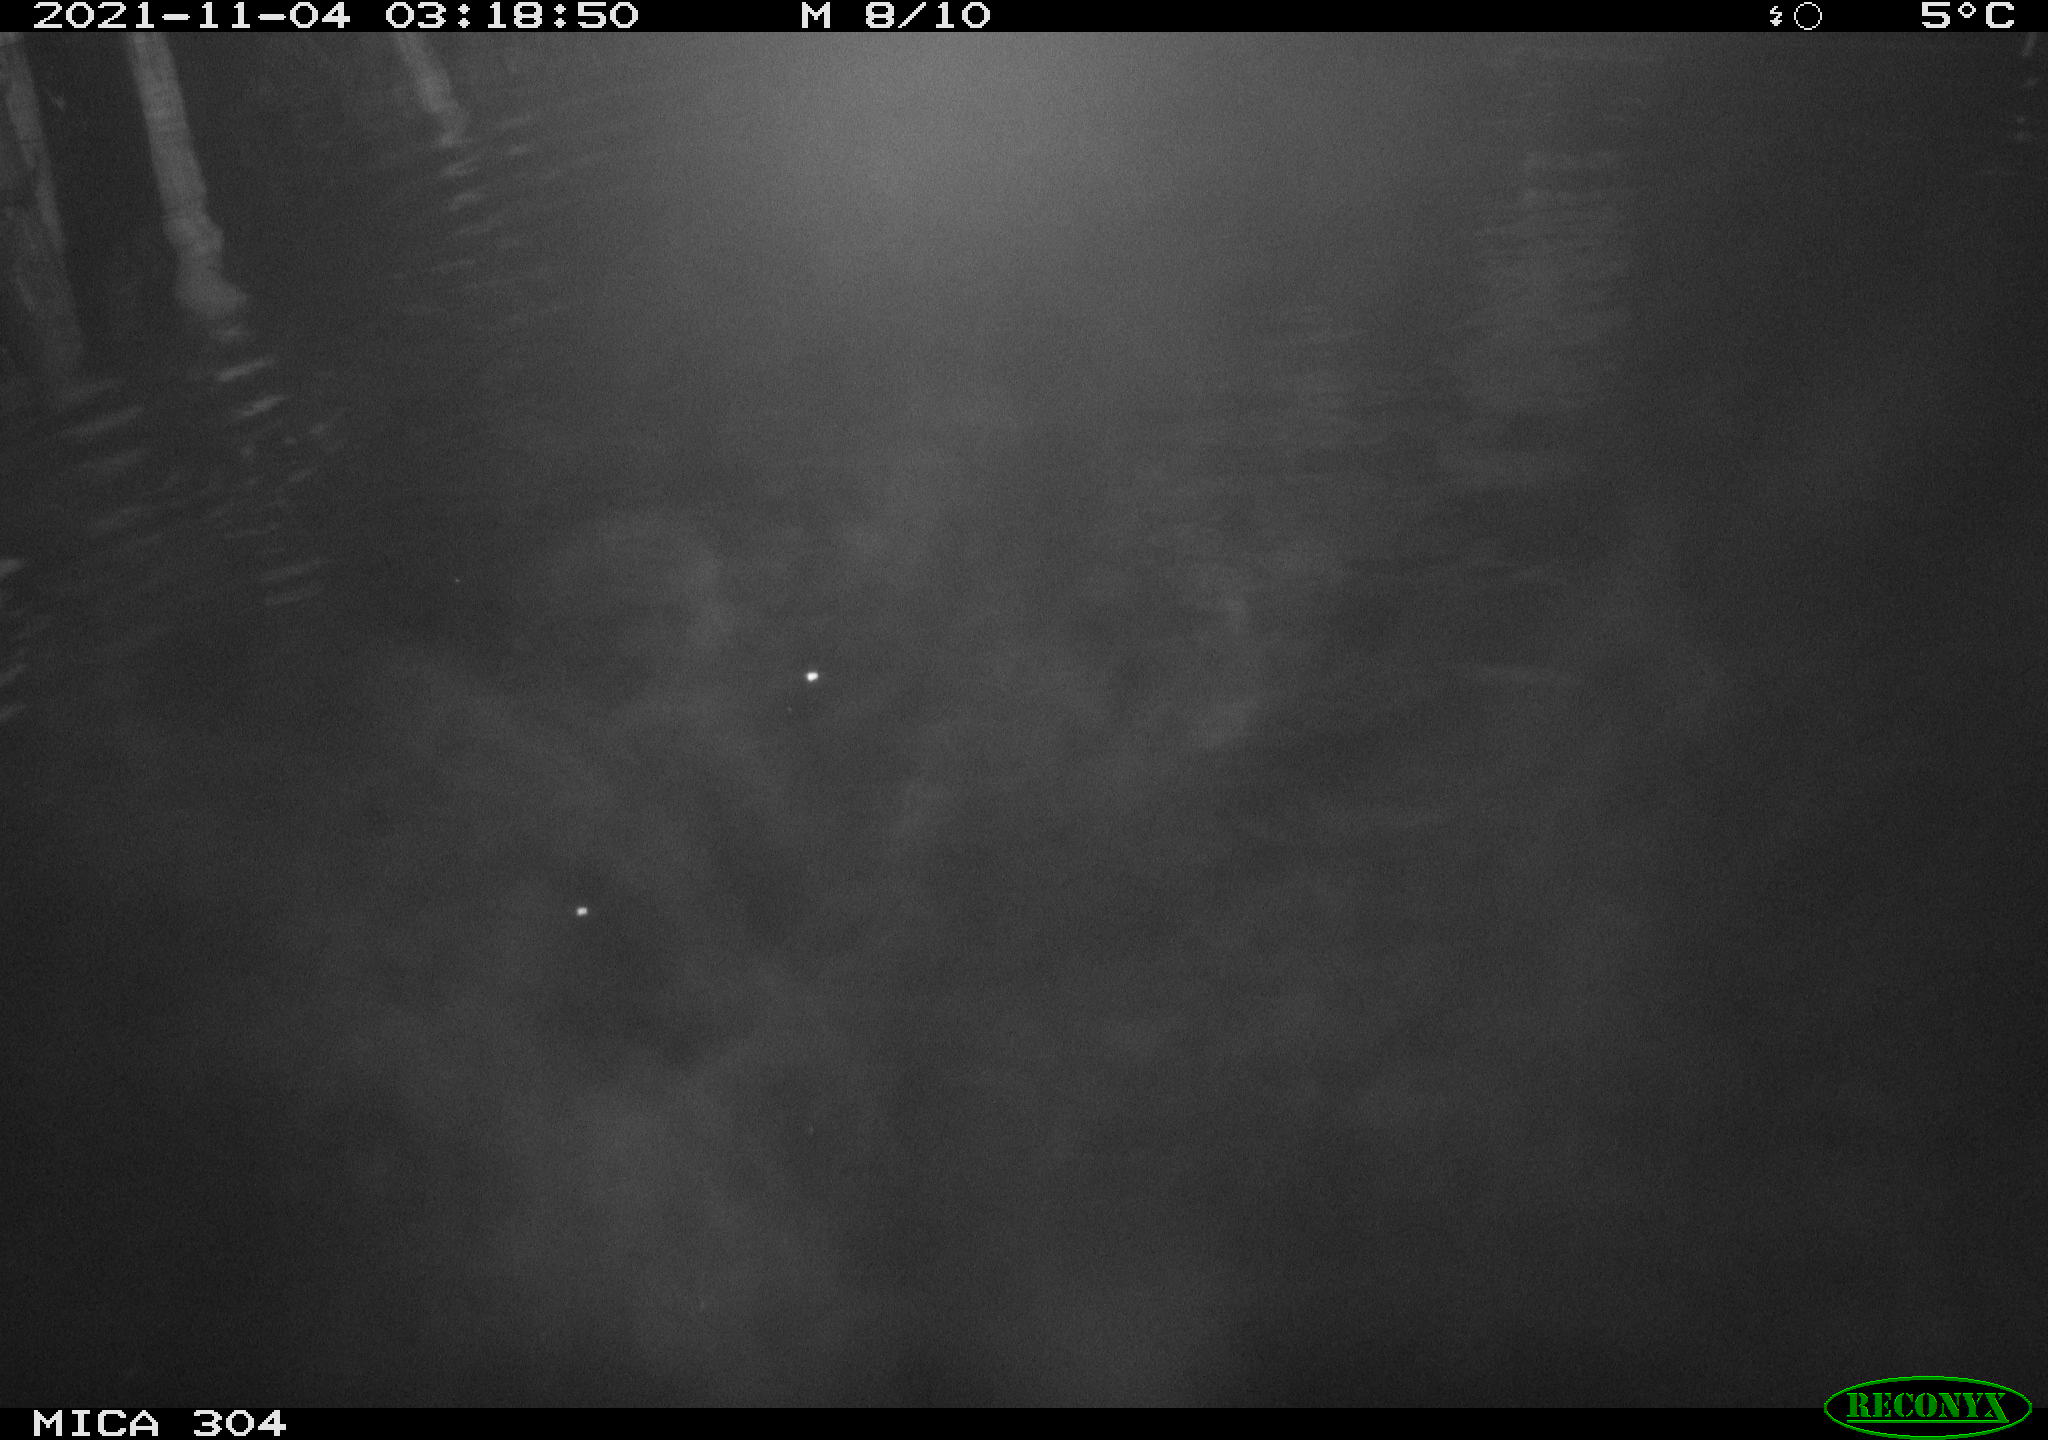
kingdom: Animalia
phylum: Chordata
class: Mammalia
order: Rodentia
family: Cricetidae
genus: Ondatra
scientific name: Ondatra zibethicus
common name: Muskrat
